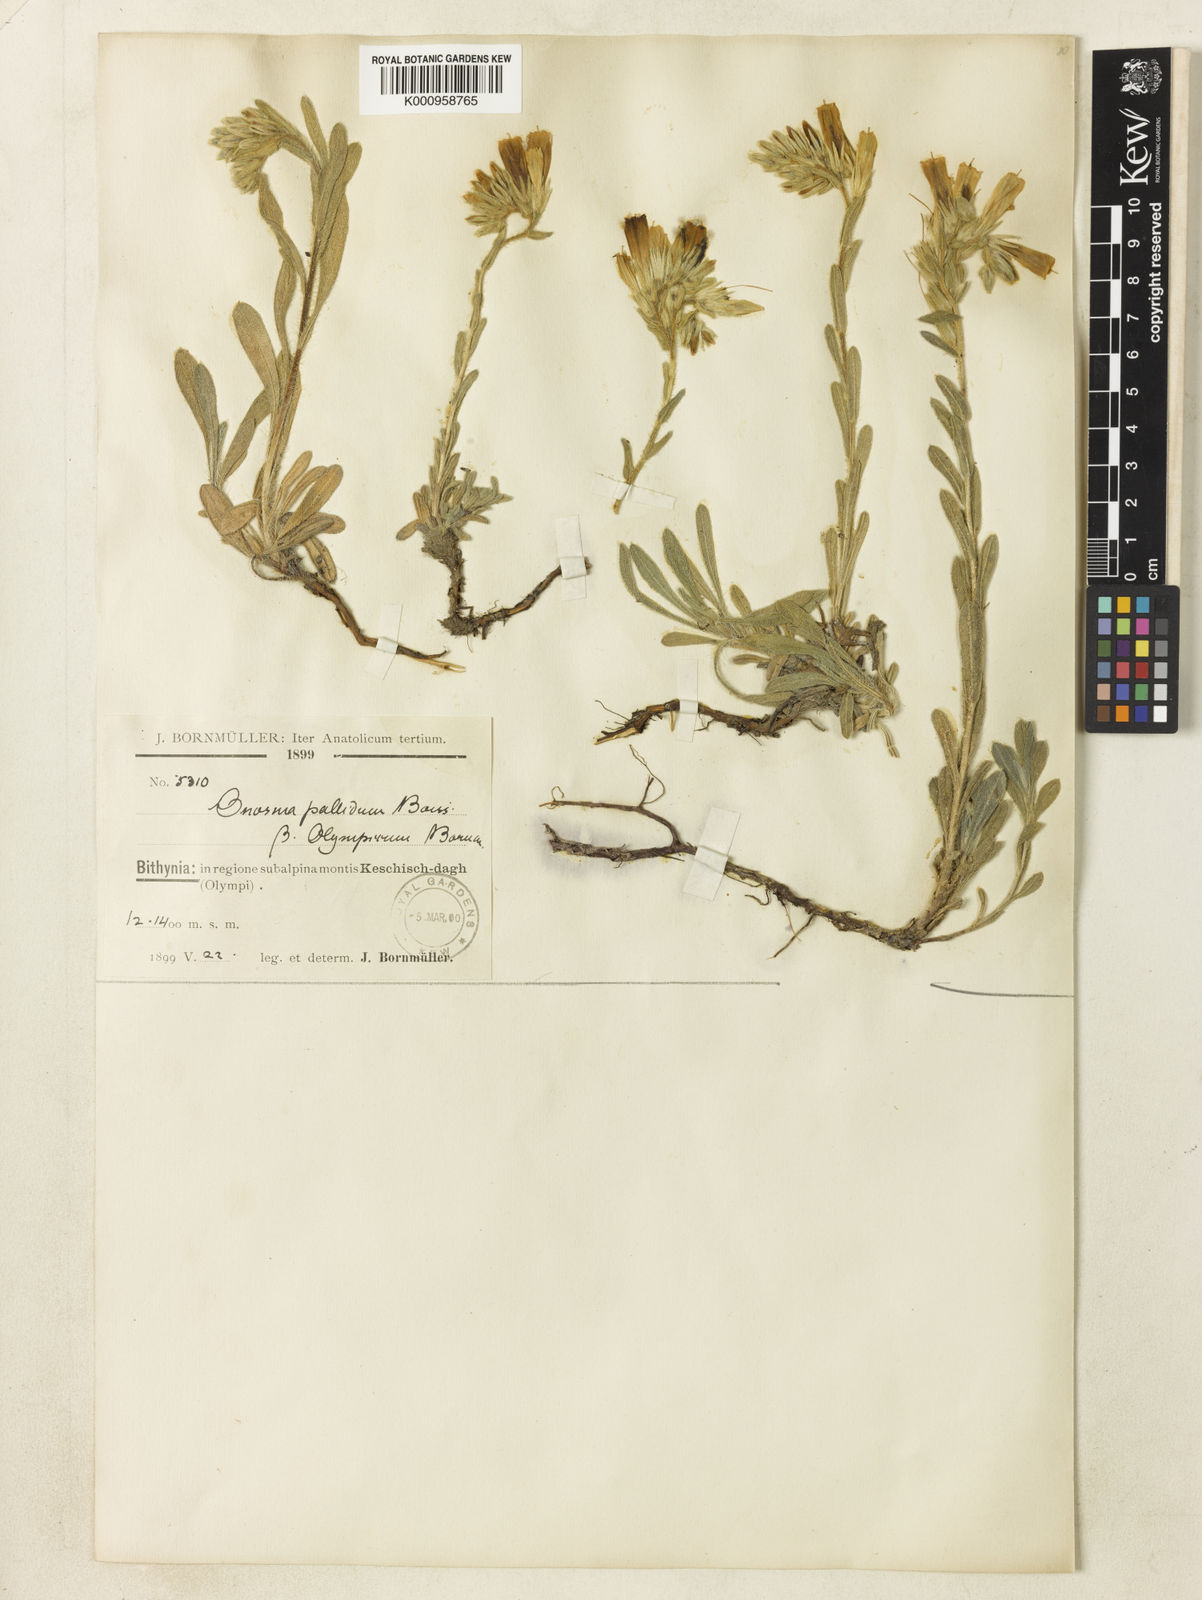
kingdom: Plantae
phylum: Tracheophyta
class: Magnoliopsida
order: Boraginales
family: Boraginaceae
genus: Onosma
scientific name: Onosma aucheriana
